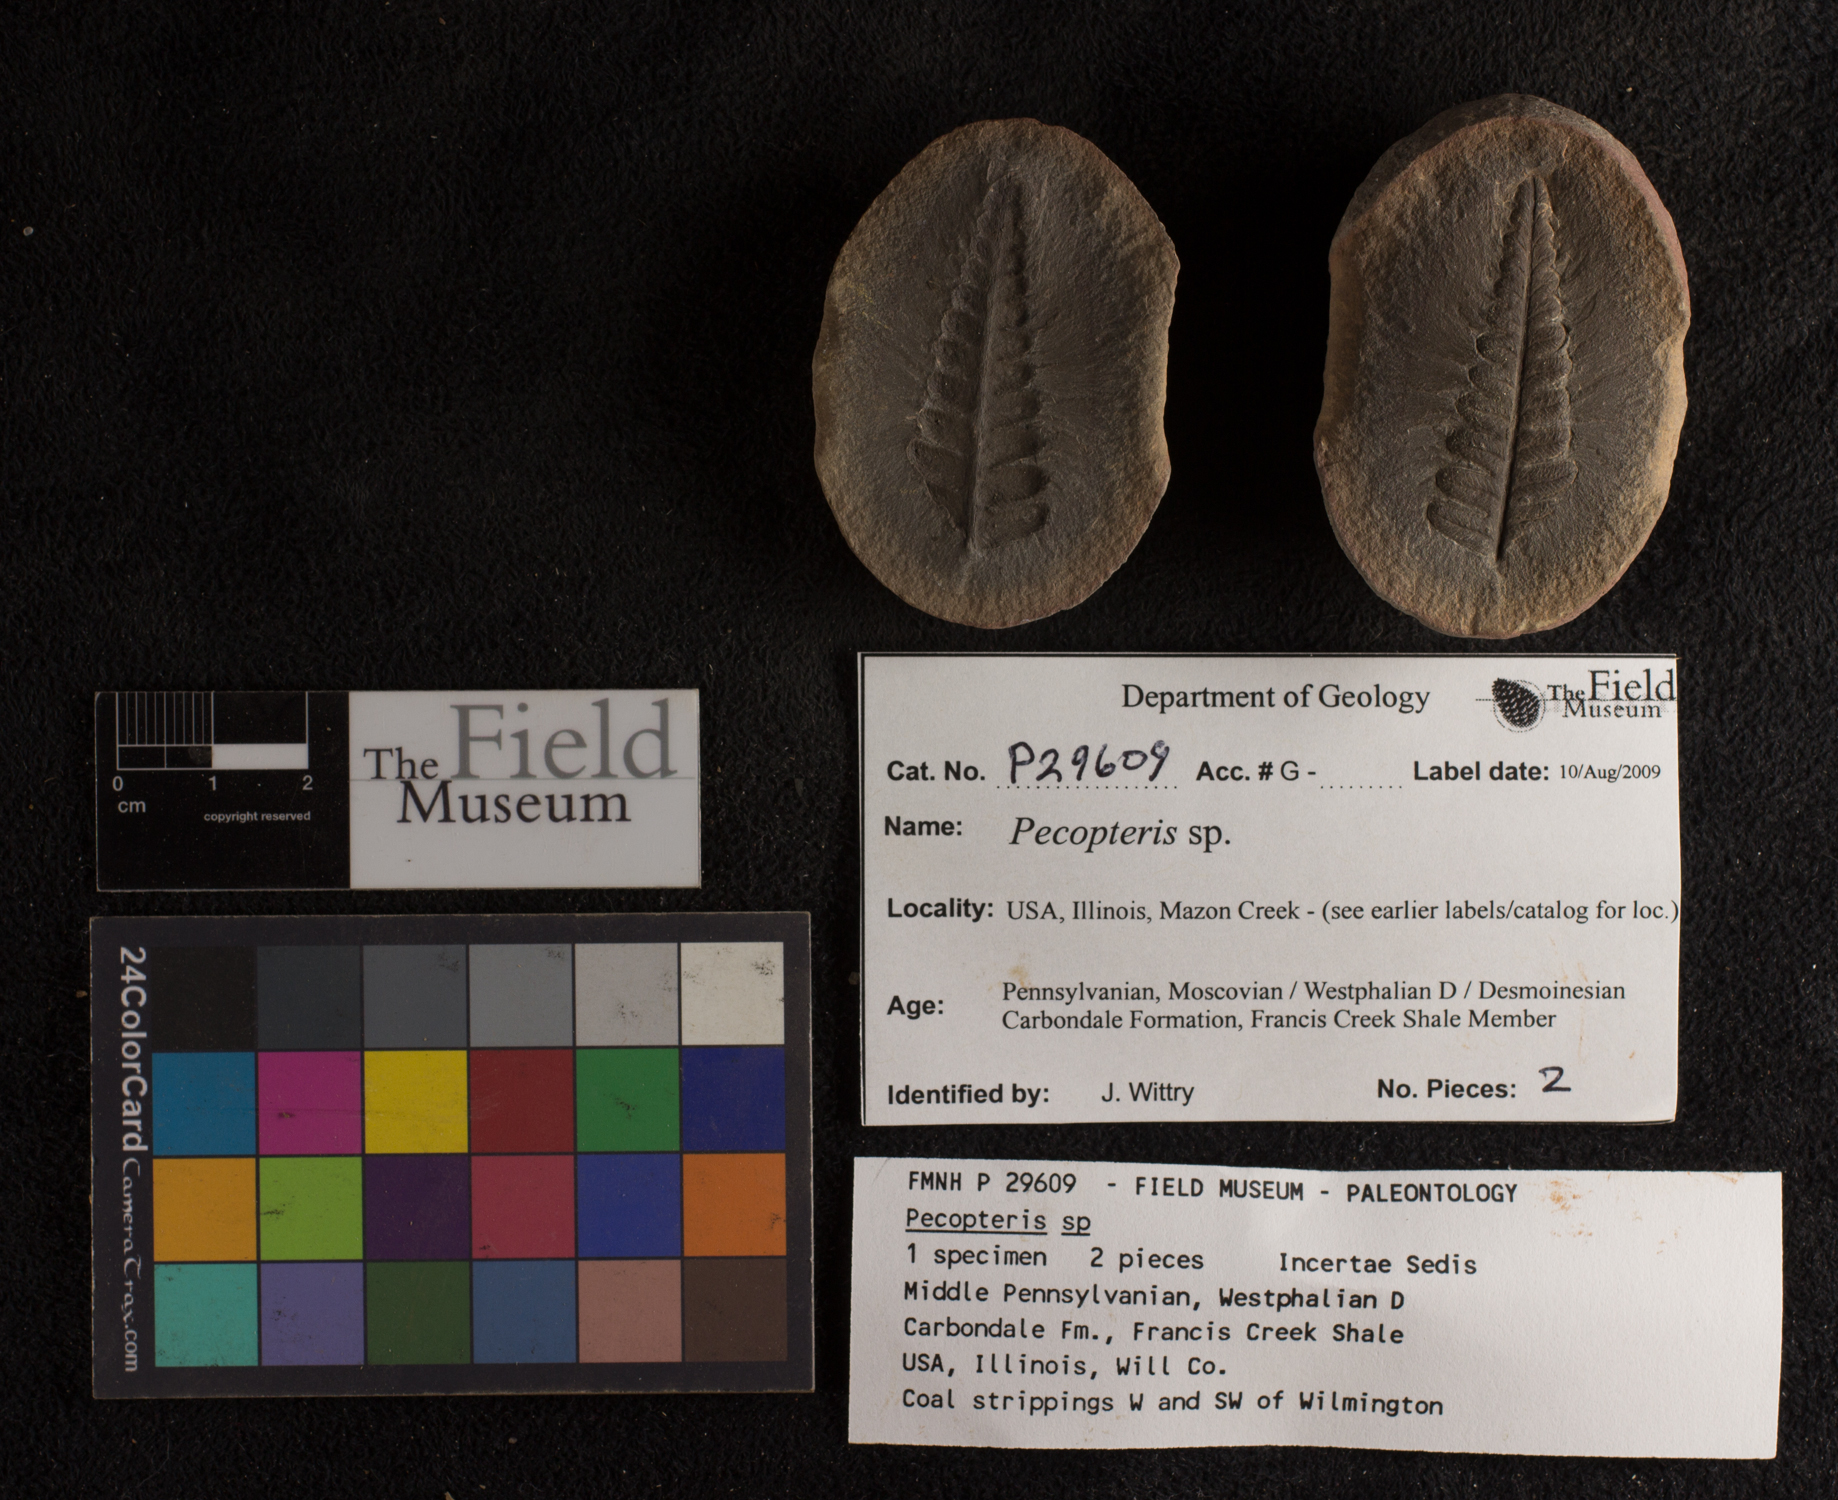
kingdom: Plantae
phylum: Tracheophyta
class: Polypodiopsida
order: Marattiales
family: Asterothecaceae
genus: Pecopteris
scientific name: Pecopteris
